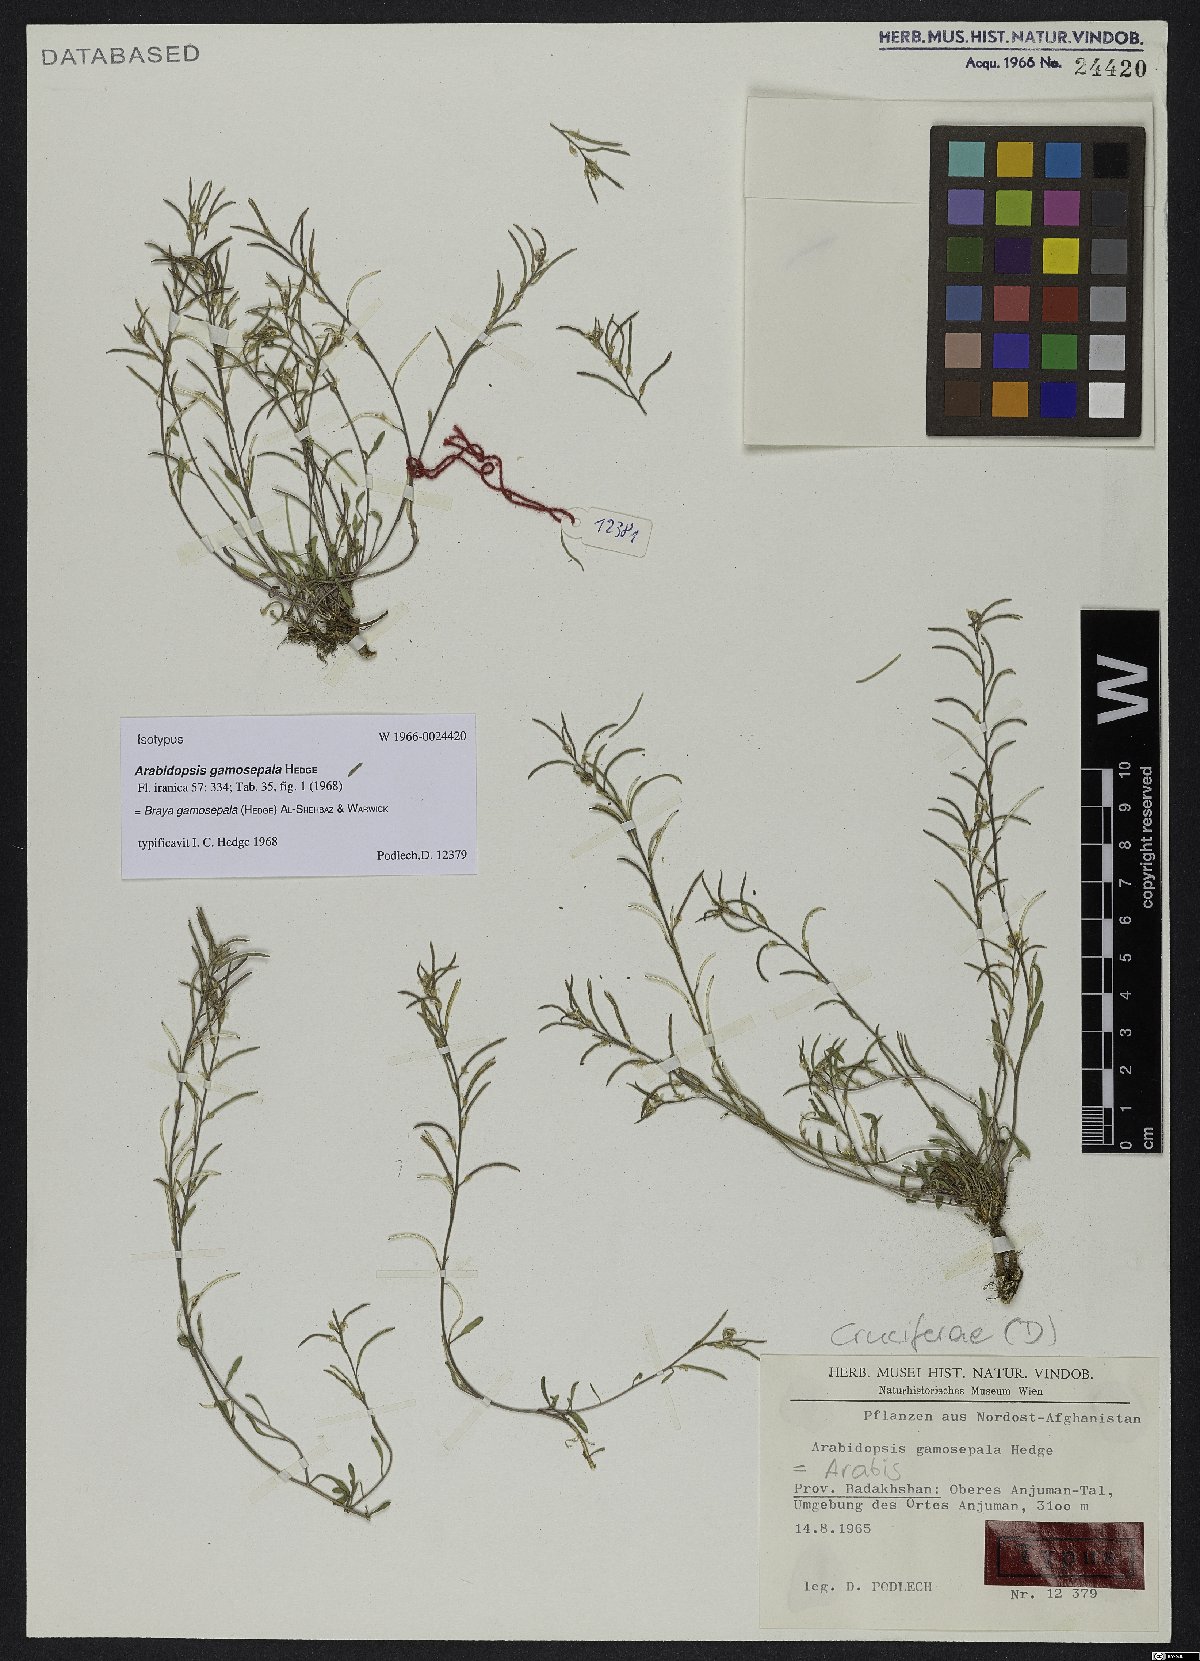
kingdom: Plantae
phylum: Tracheophyta
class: Magnoliopsida
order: Brassicales
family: Brassicaceae
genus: Braya
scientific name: Braya gamosepala
